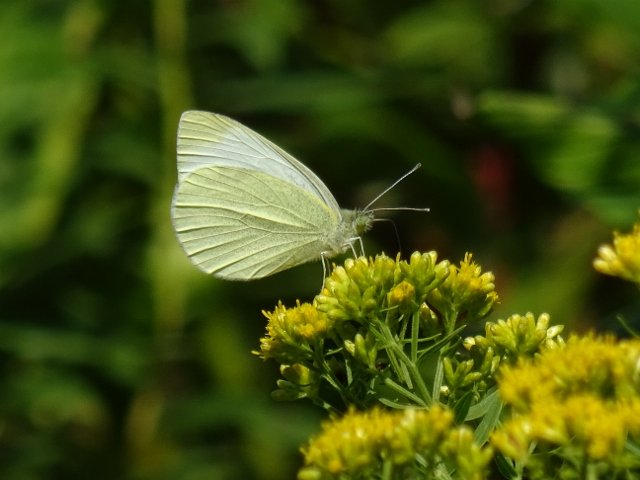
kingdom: Animalia
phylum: Arthropoda
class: Insecta
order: Lepidoptera
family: Pieridae
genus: Pieris
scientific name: Pieris rapae
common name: Cabbage White
